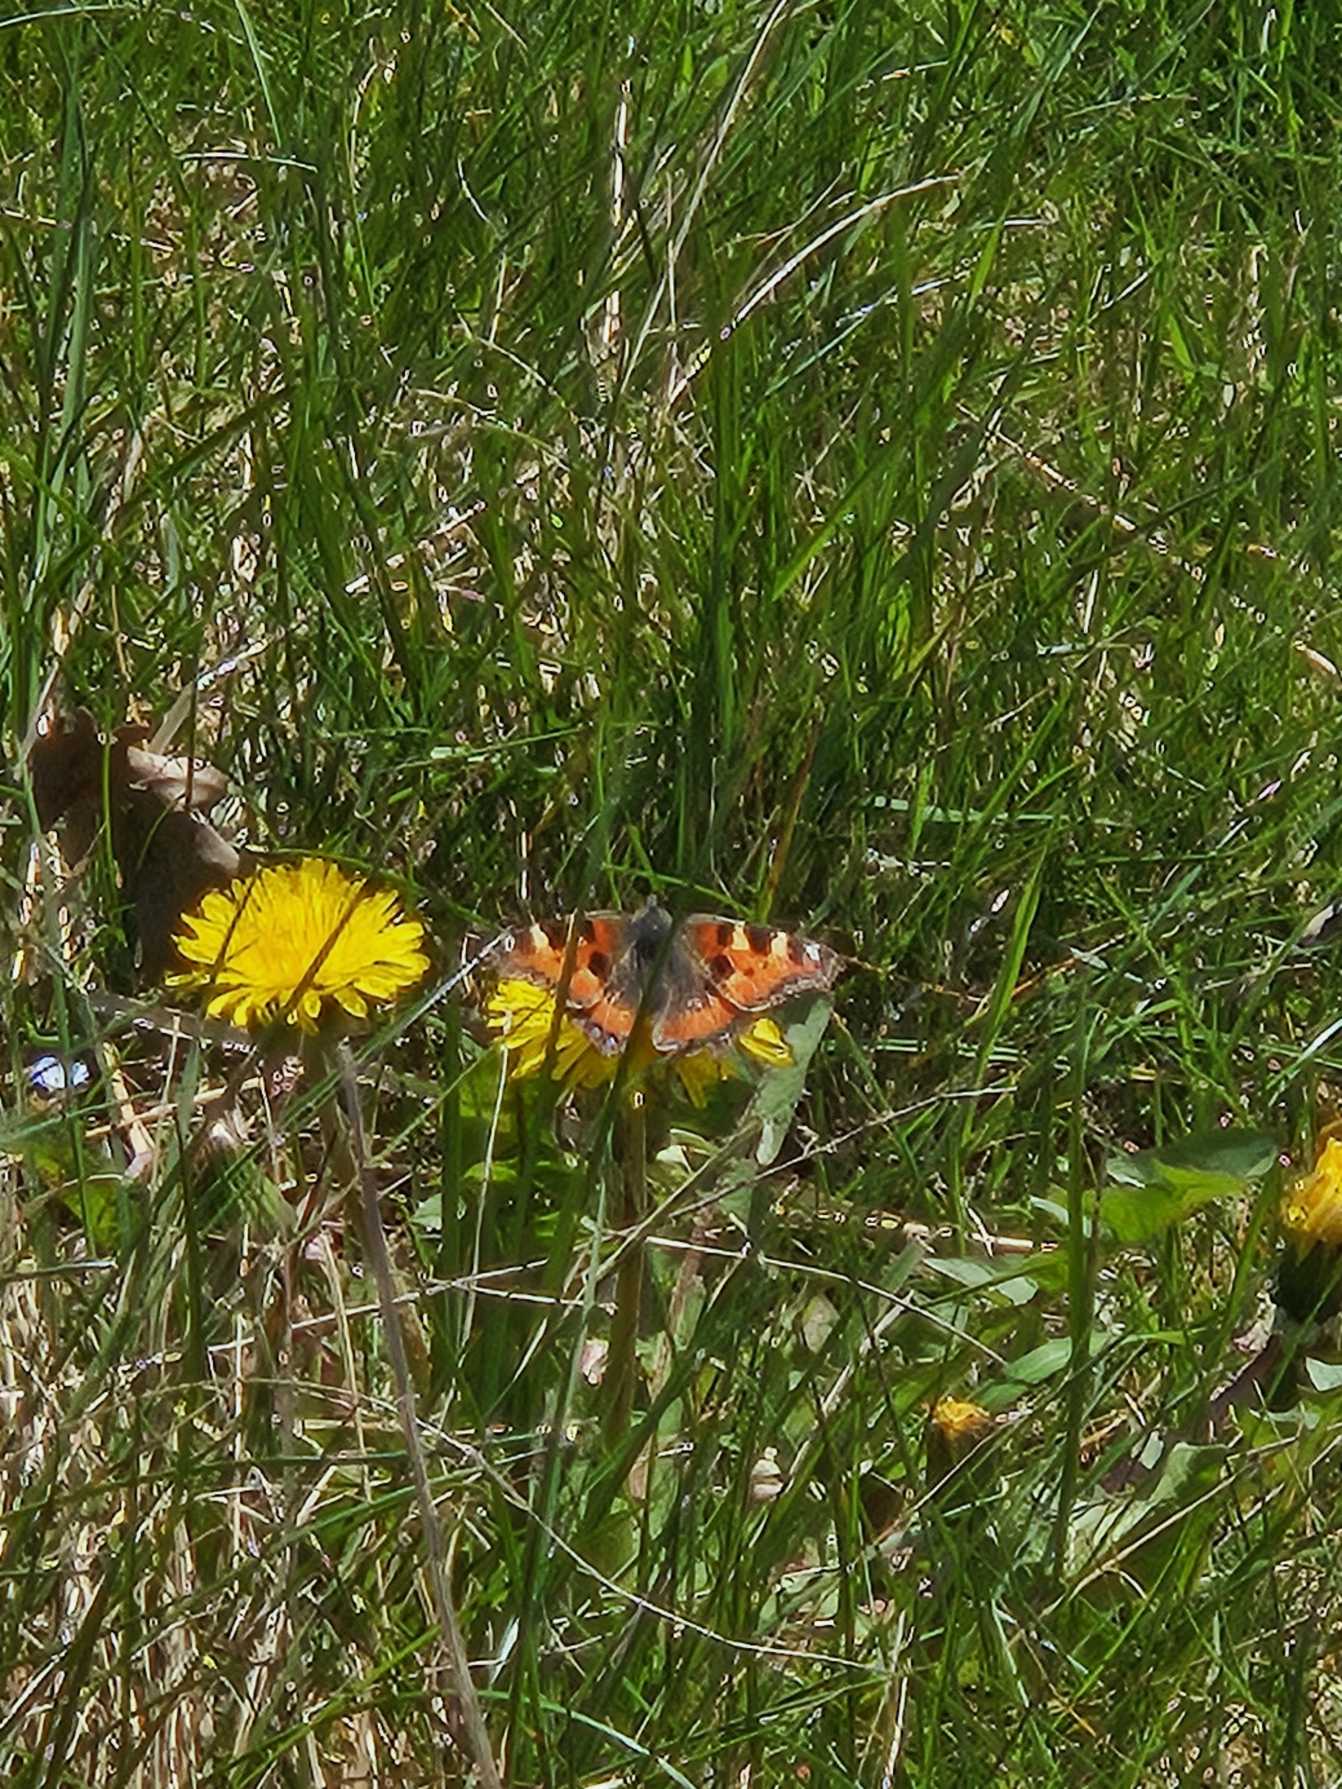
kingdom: Animalia
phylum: Arthropoda
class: Insecta
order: Lepidoptera
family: Nymphalidae
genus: Aglais
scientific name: Aglais urticae
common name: Nældens takvinge
